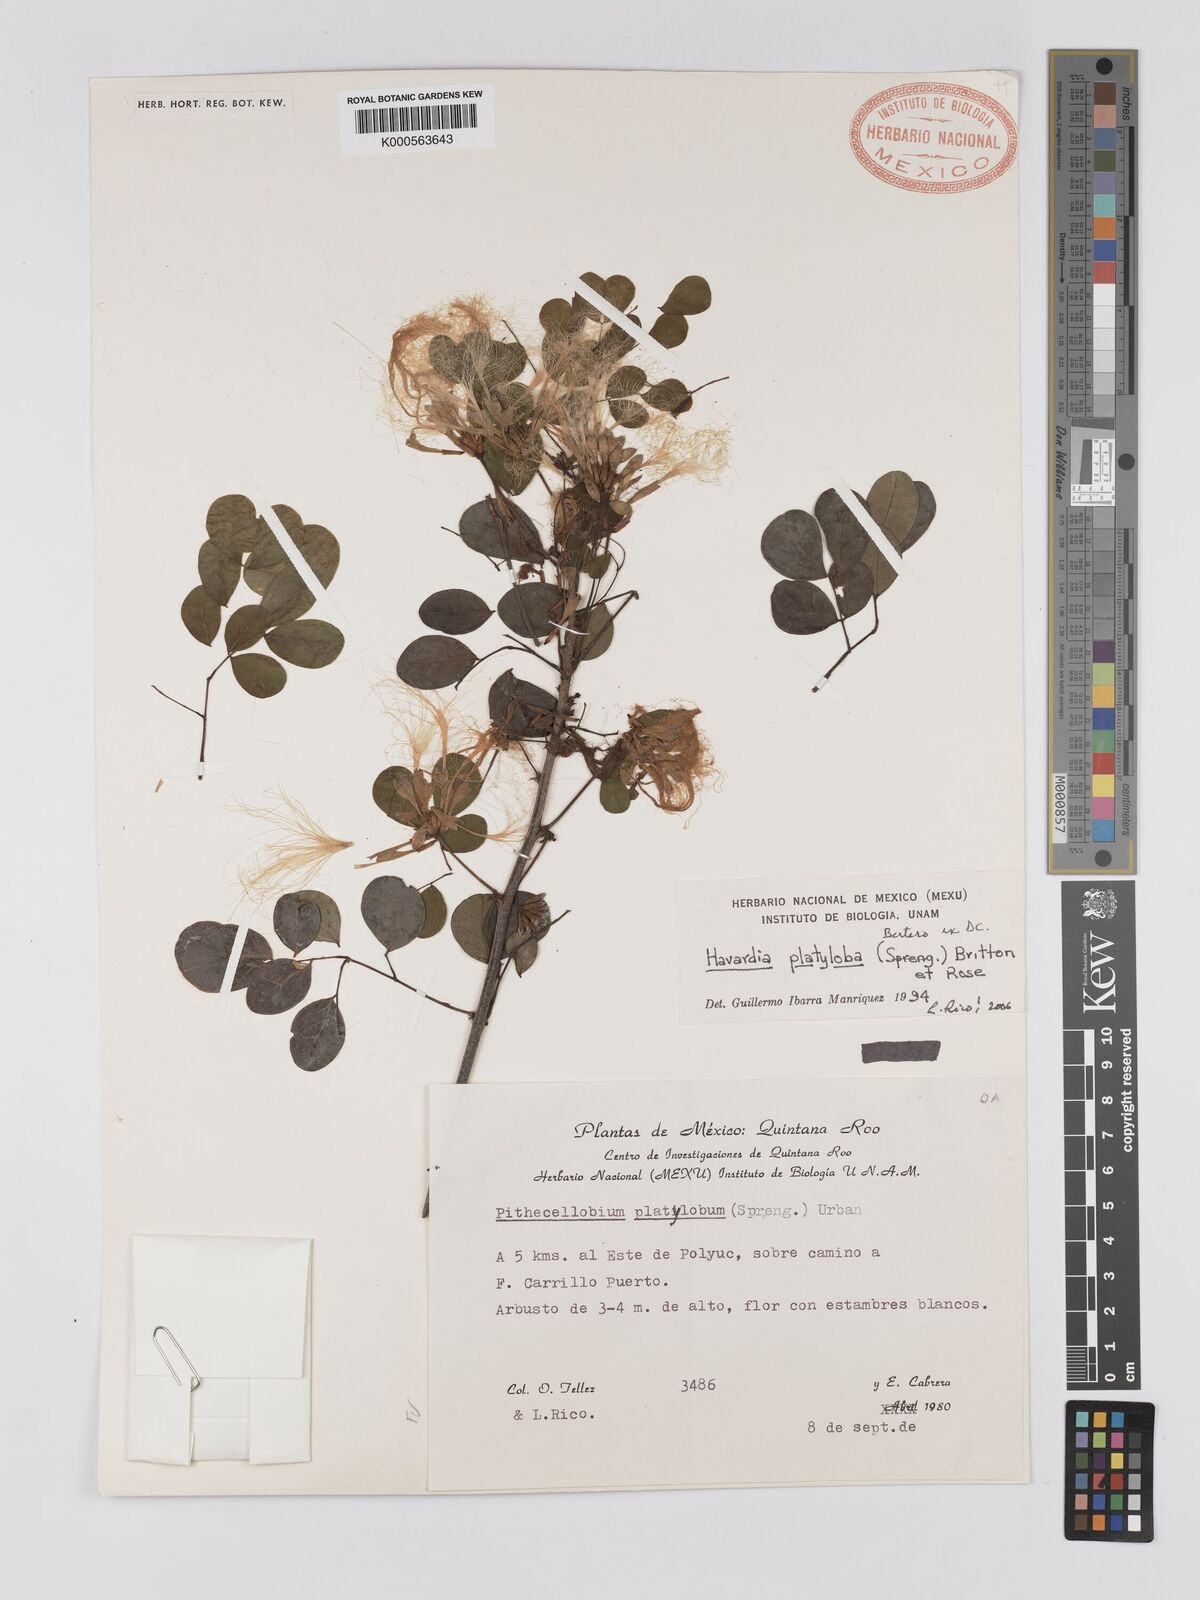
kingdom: Plantae
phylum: Tracheophyta
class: Magnoliopsida
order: Fabales
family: Fabaceae
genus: Havardia
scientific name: Havardia platyloba
